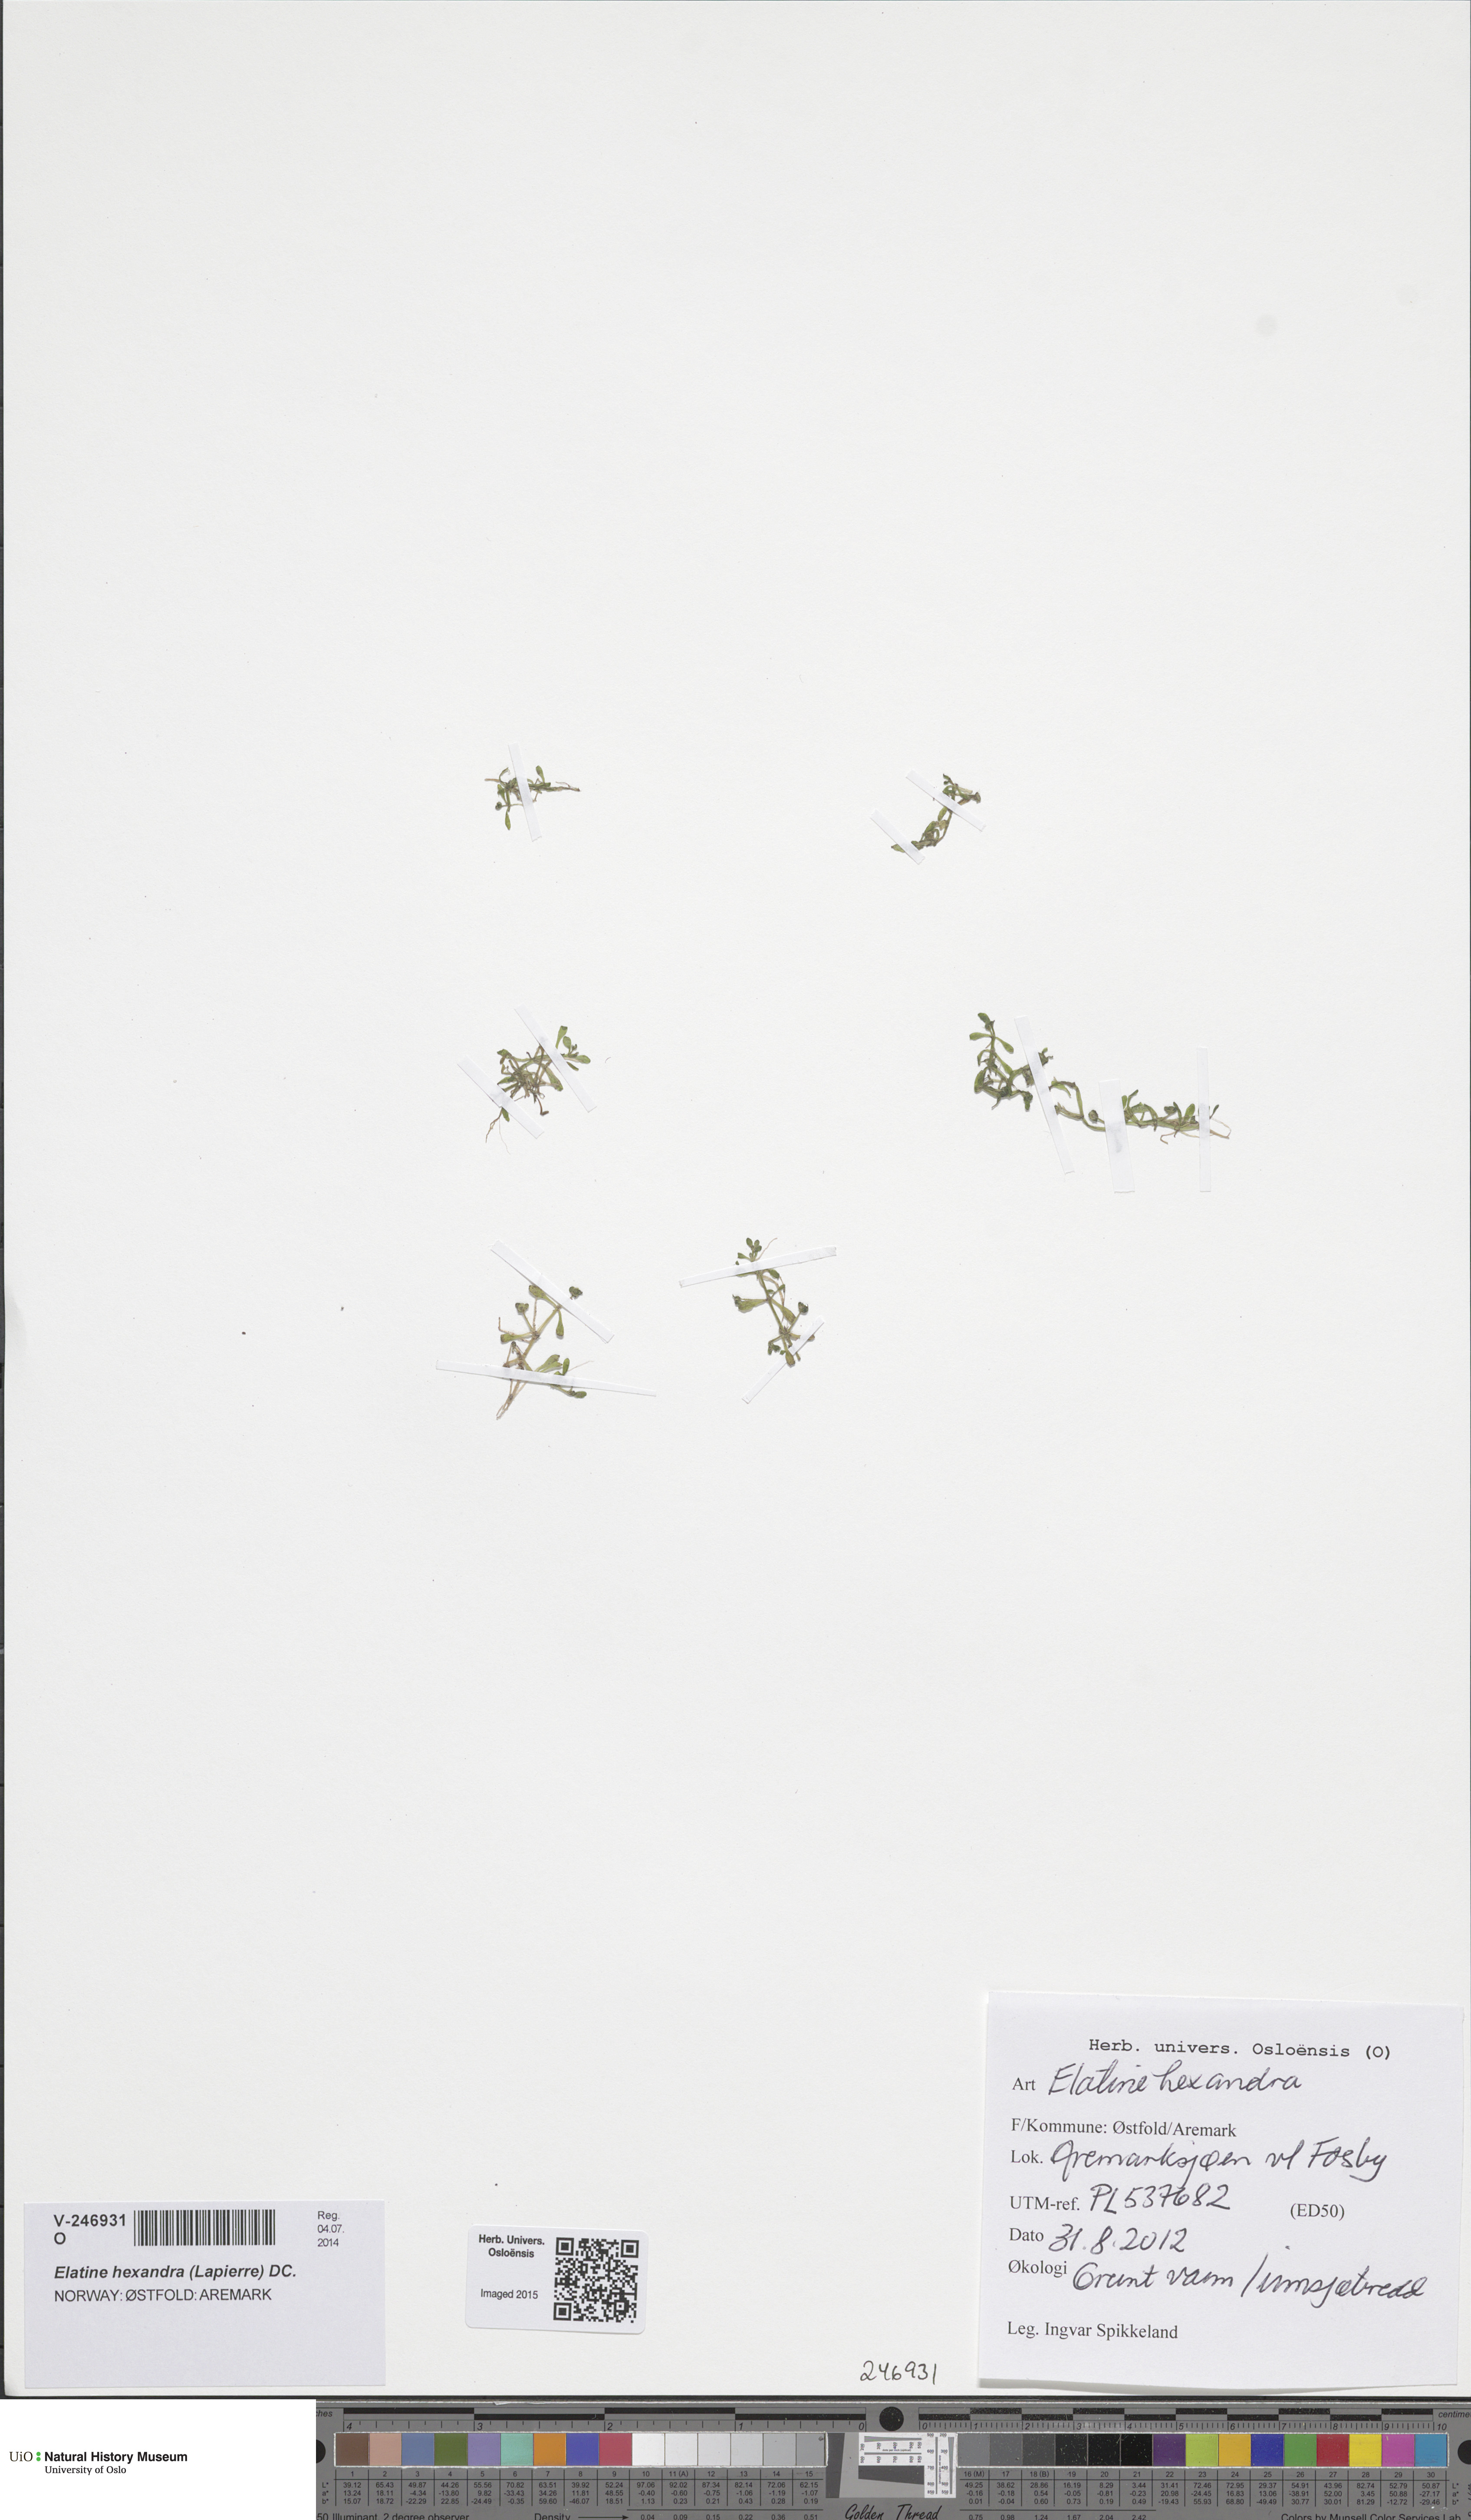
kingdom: Plantae
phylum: Tracheophyta
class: Magnoliopsida
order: Malpighiales
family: Elatinaceae
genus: Elatine
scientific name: Elatine hexandra
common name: Six-stamened waterwort
